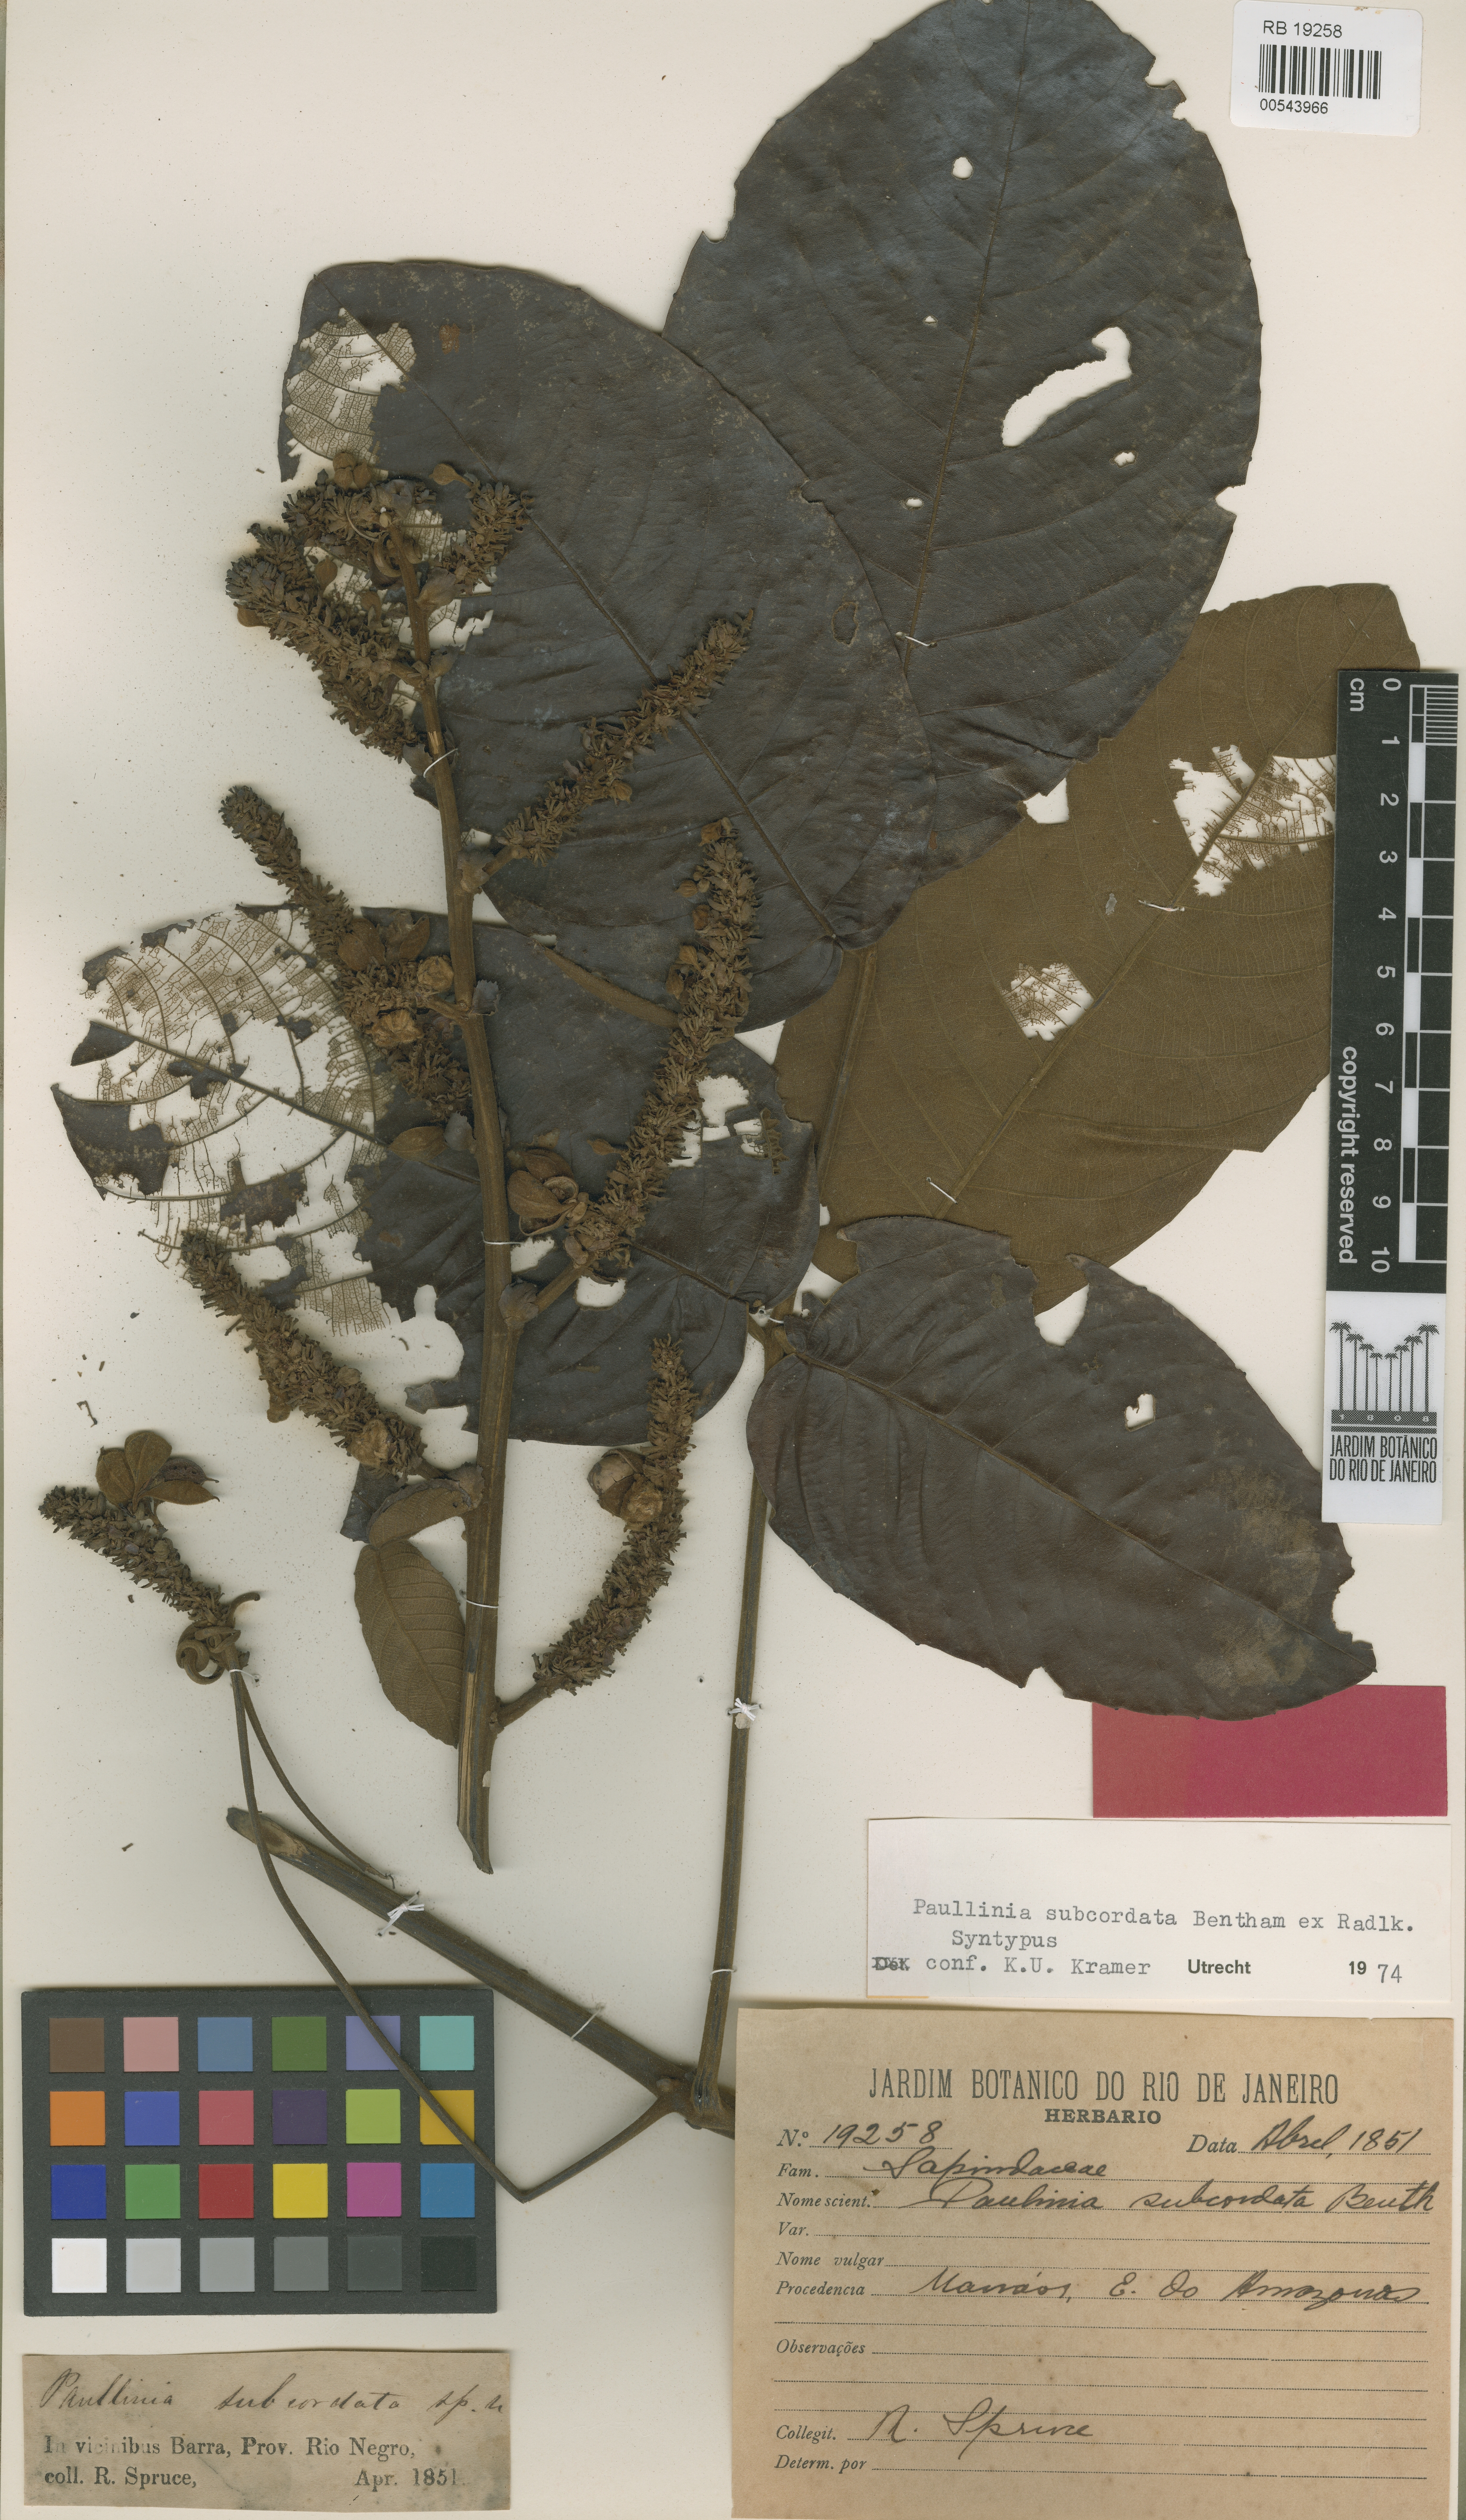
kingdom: Plantae
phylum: Tracheophyta
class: Magnoliopsida
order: Sapindales
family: Sapindaceae
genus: Paullinia
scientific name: Paullinia rugosa
